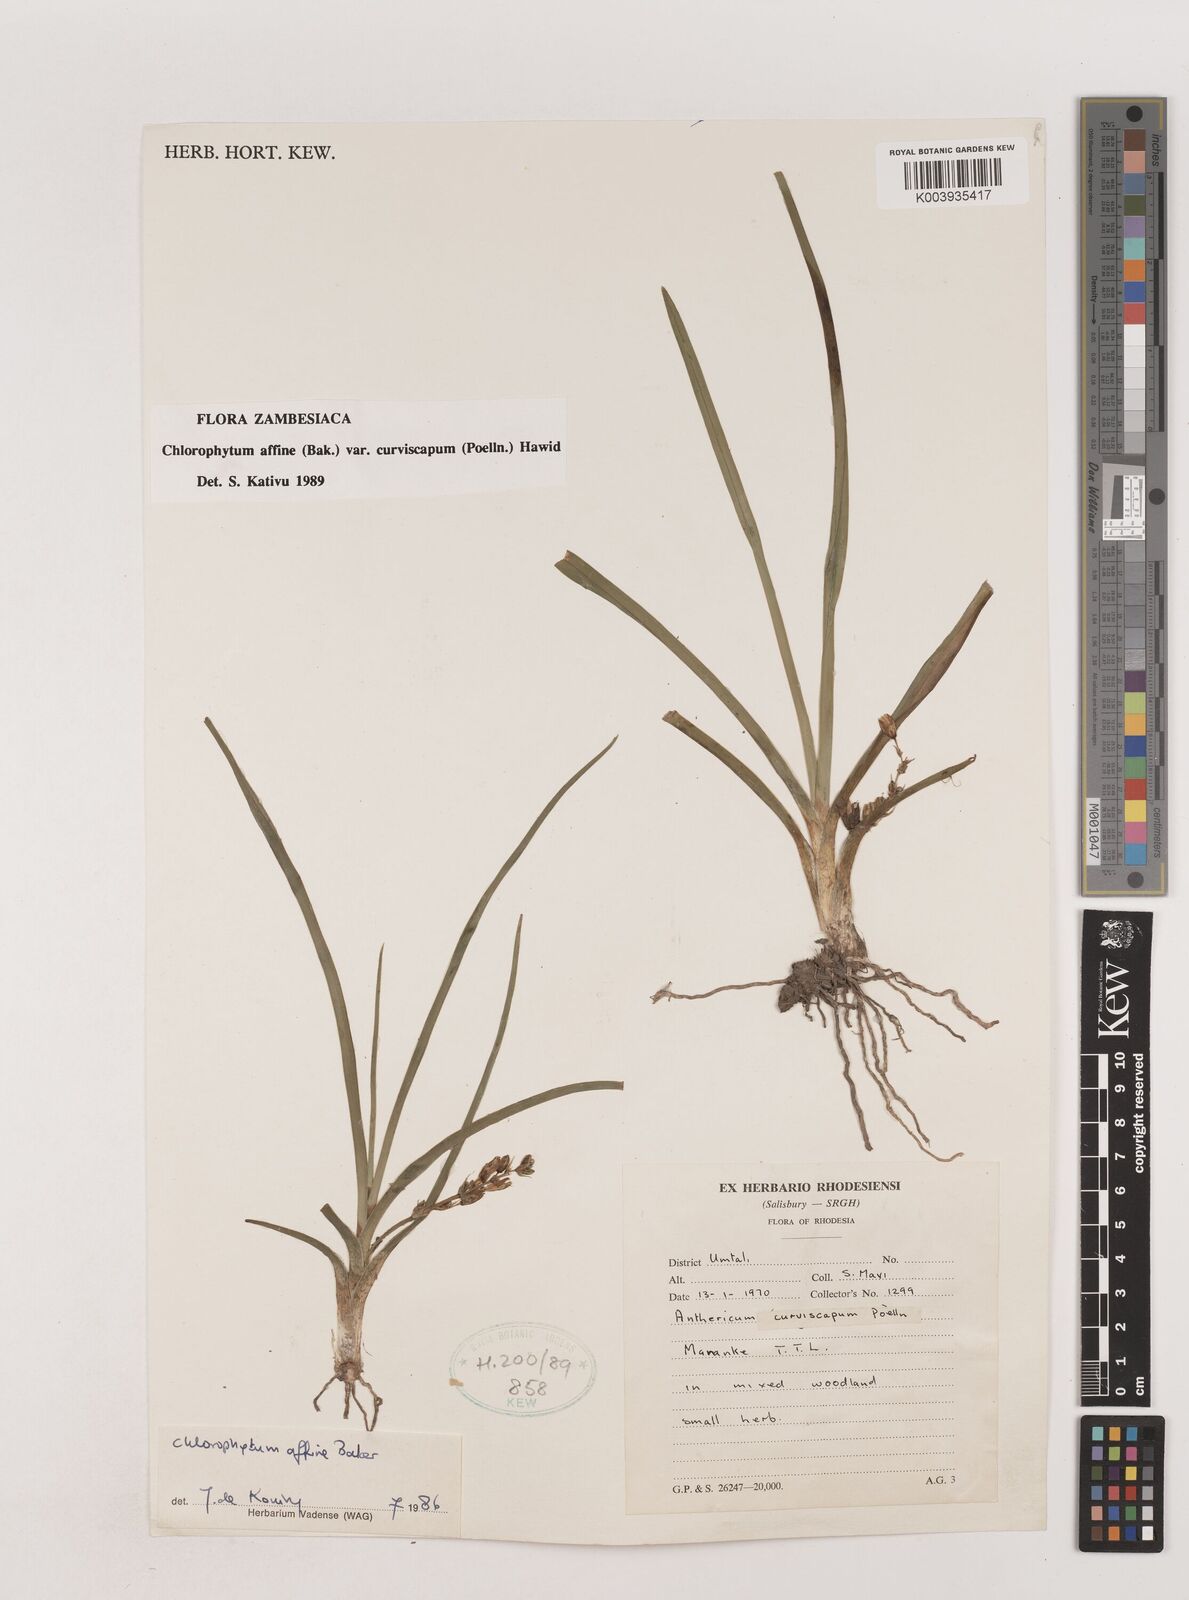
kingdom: Plantae
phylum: Tracheophyta
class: Liliopsida
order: Asparagales
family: Asparagaceae
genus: Chlorophytum
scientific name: Chlorophytum tordense
